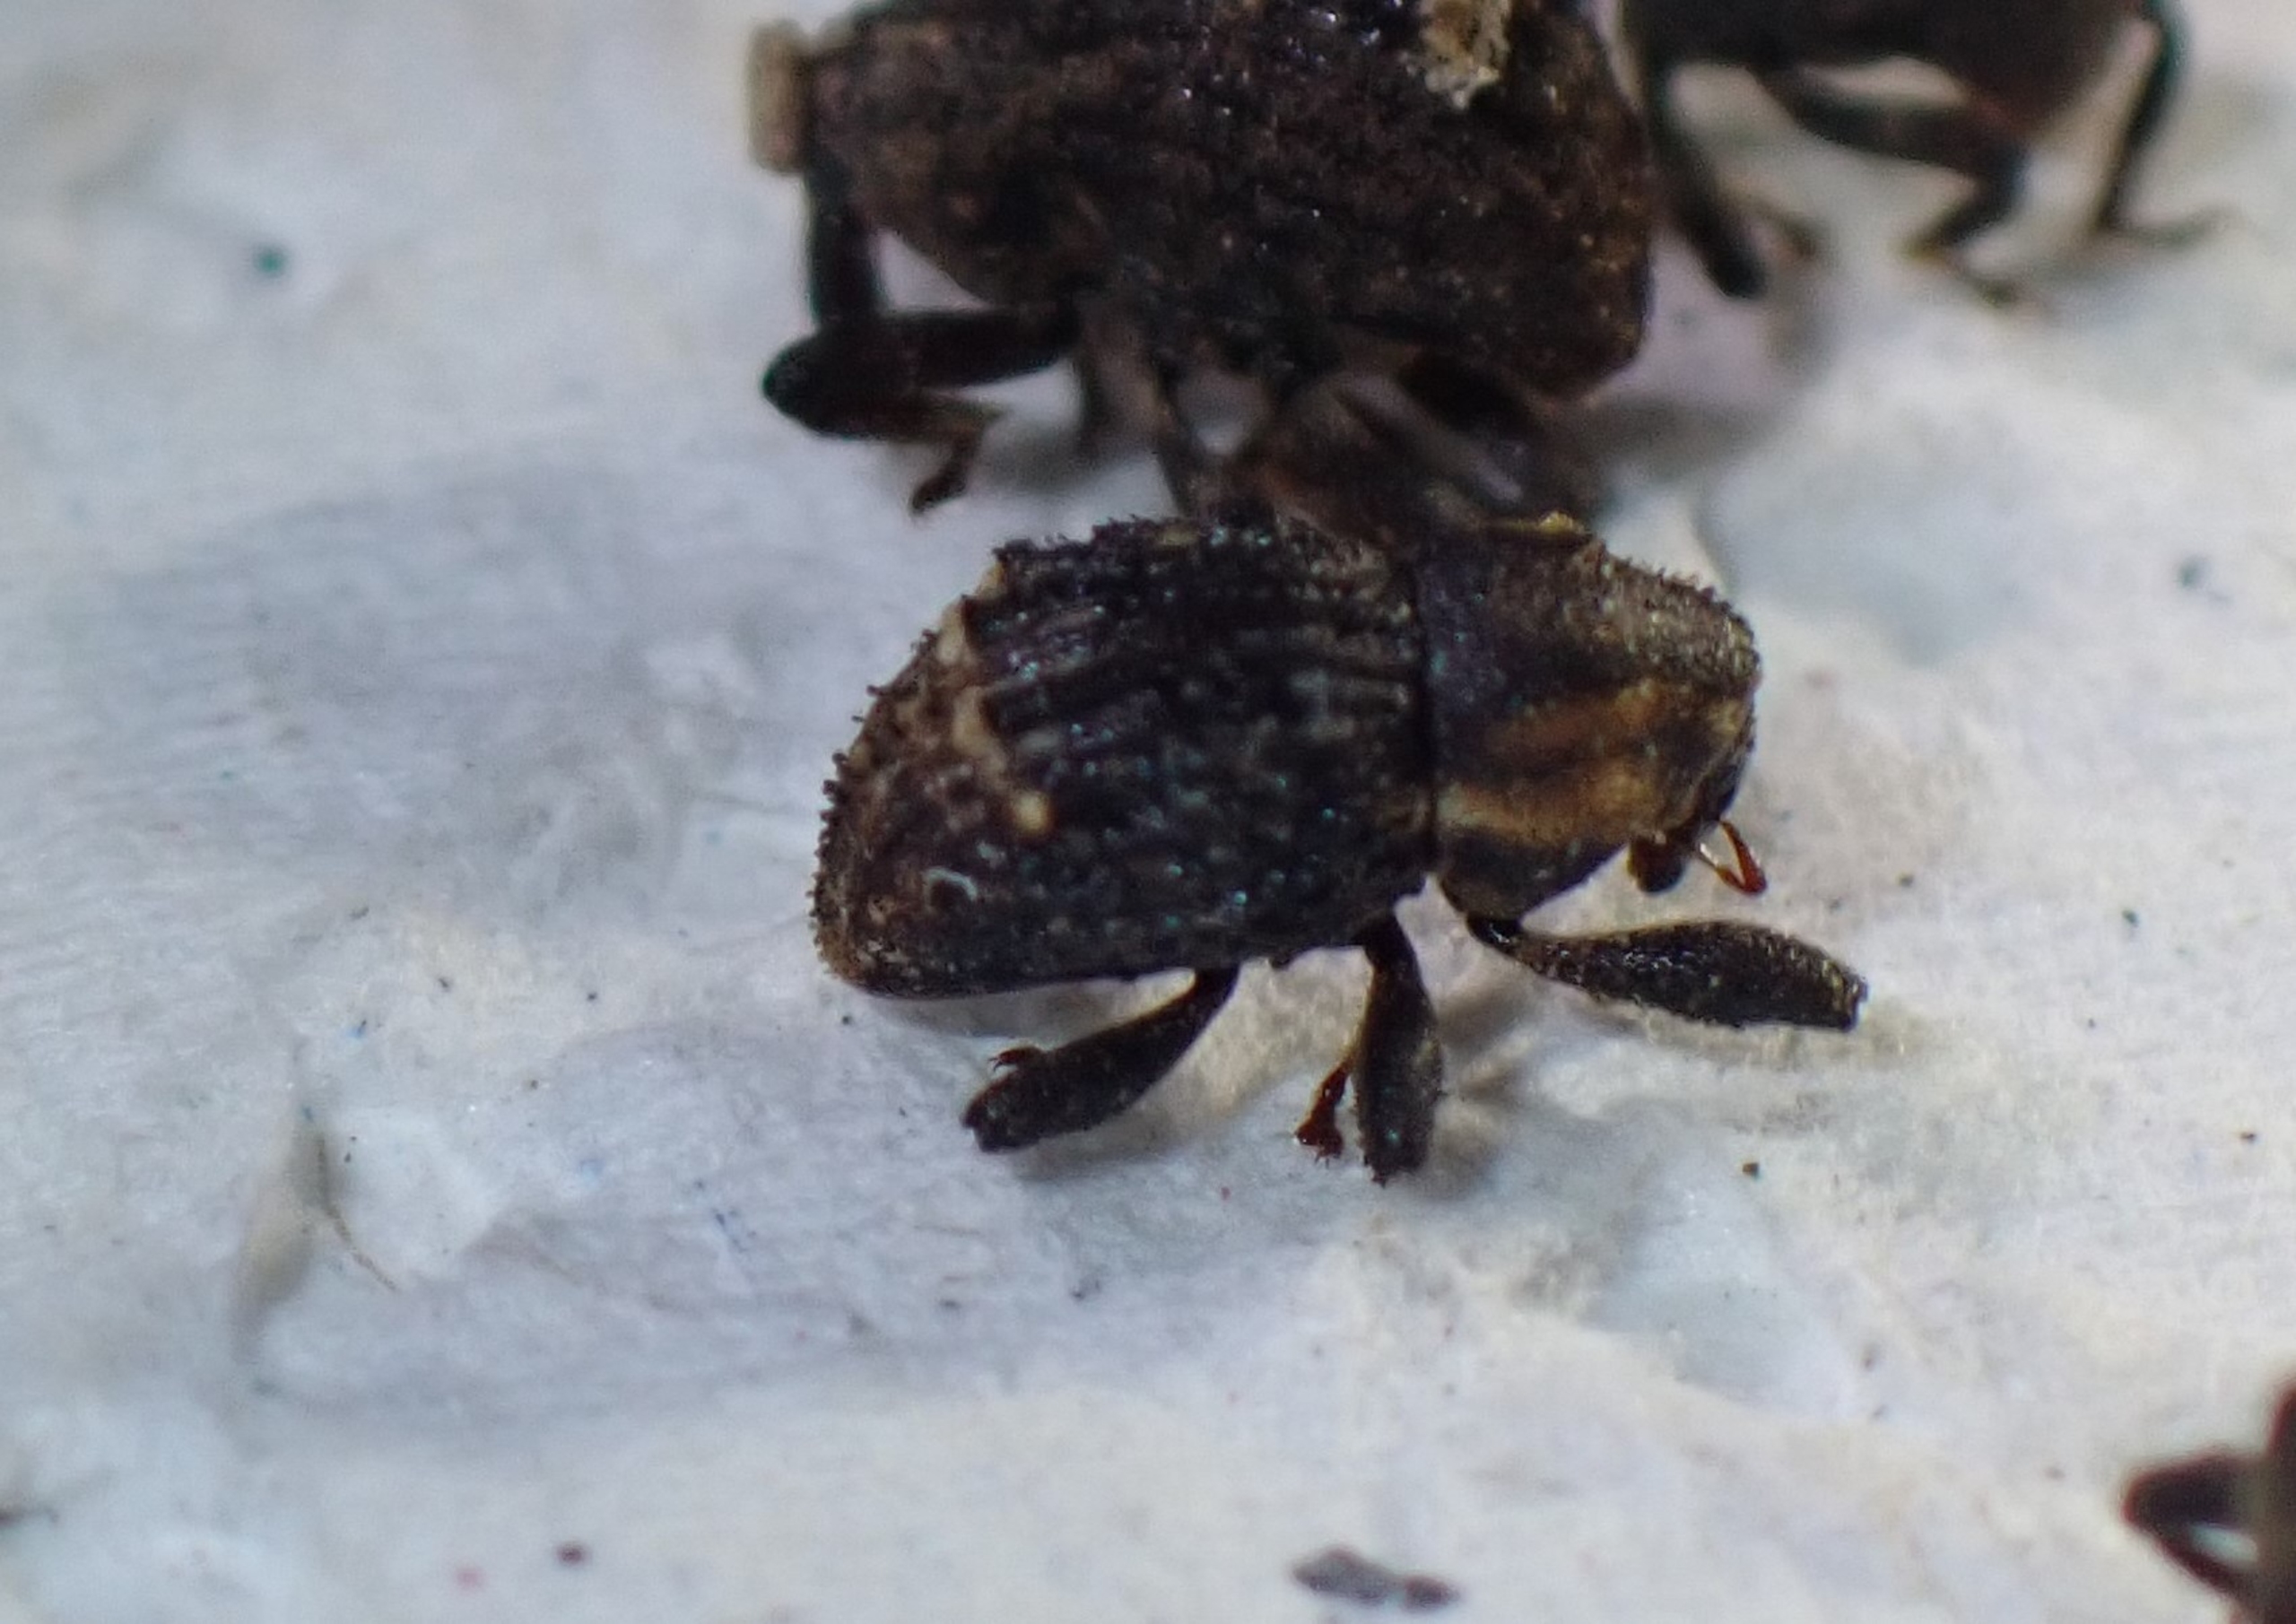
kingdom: Animalia
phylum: Arthropoda
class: Insecta
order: Coleoptera
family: Curculionidae
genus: Acalles
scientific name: Acalles camelus
